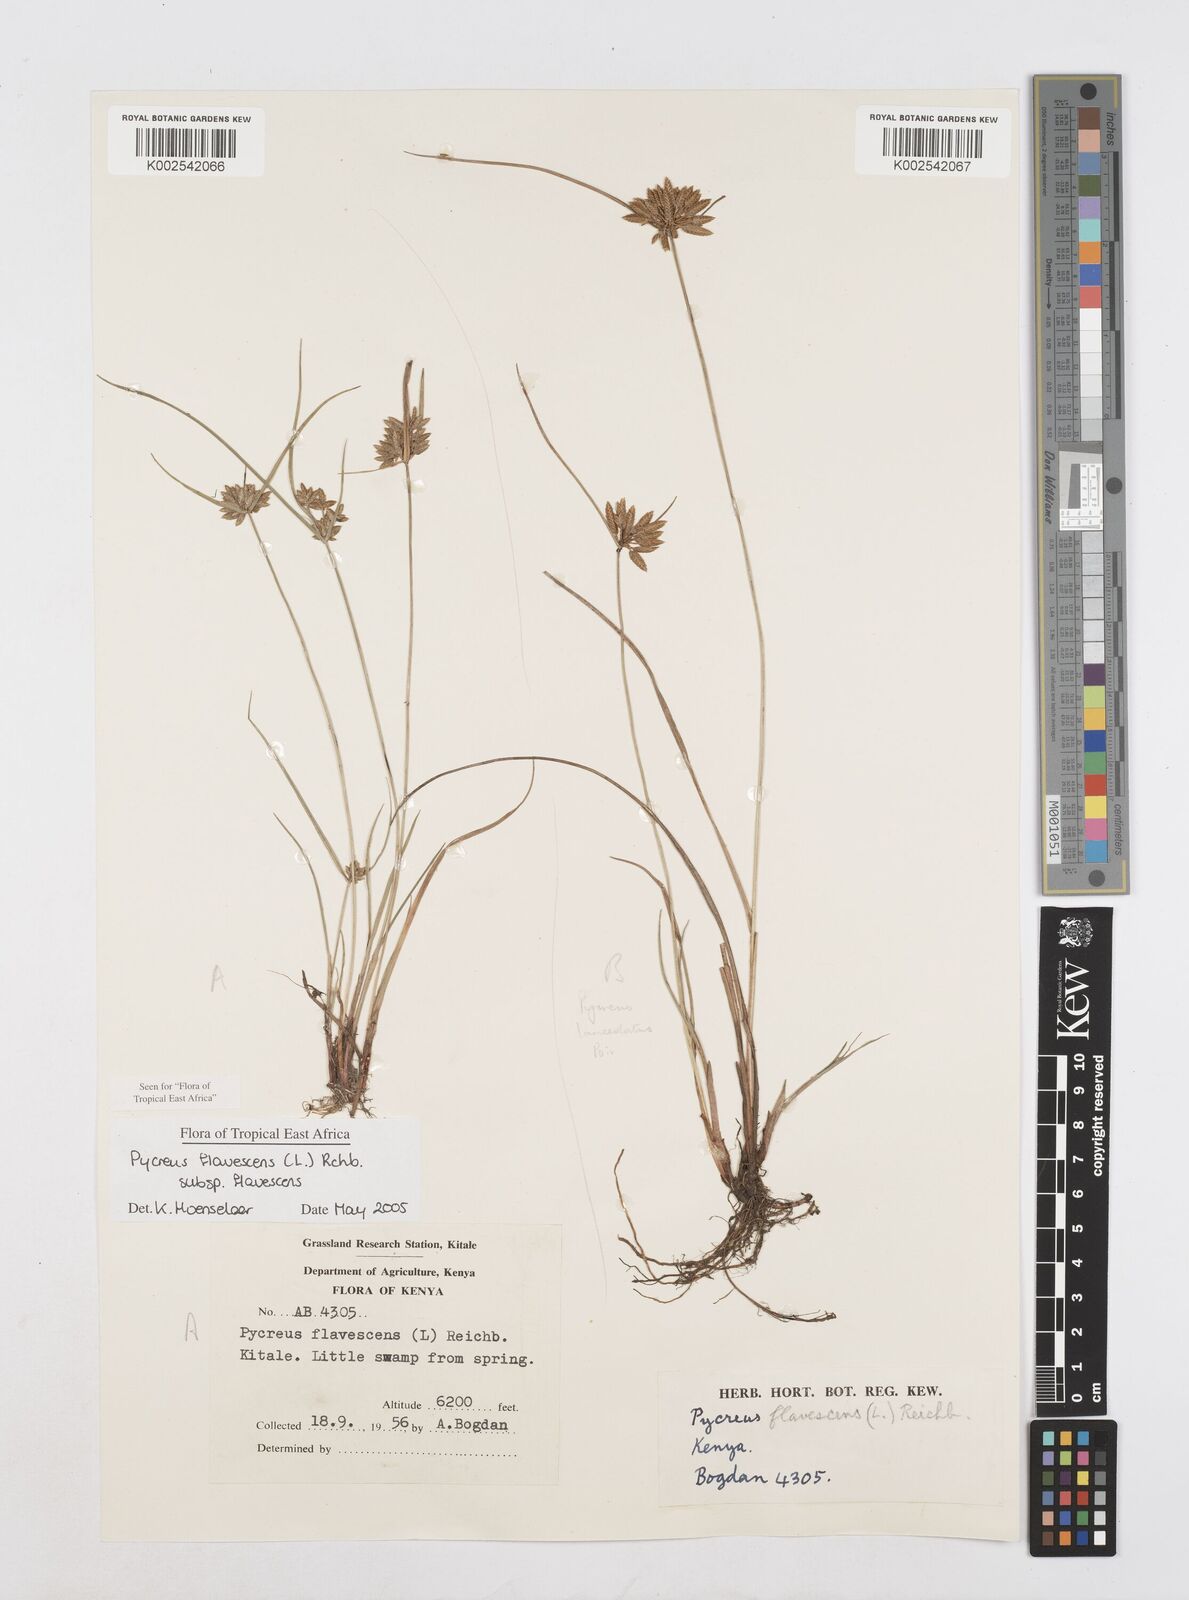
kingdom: Plantae
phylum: Tracheophyta
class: Liliopsida
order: Poales
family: Cyperaceae
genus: Cyperus
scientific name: Cyperus flavescens
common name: Yellow galingale
